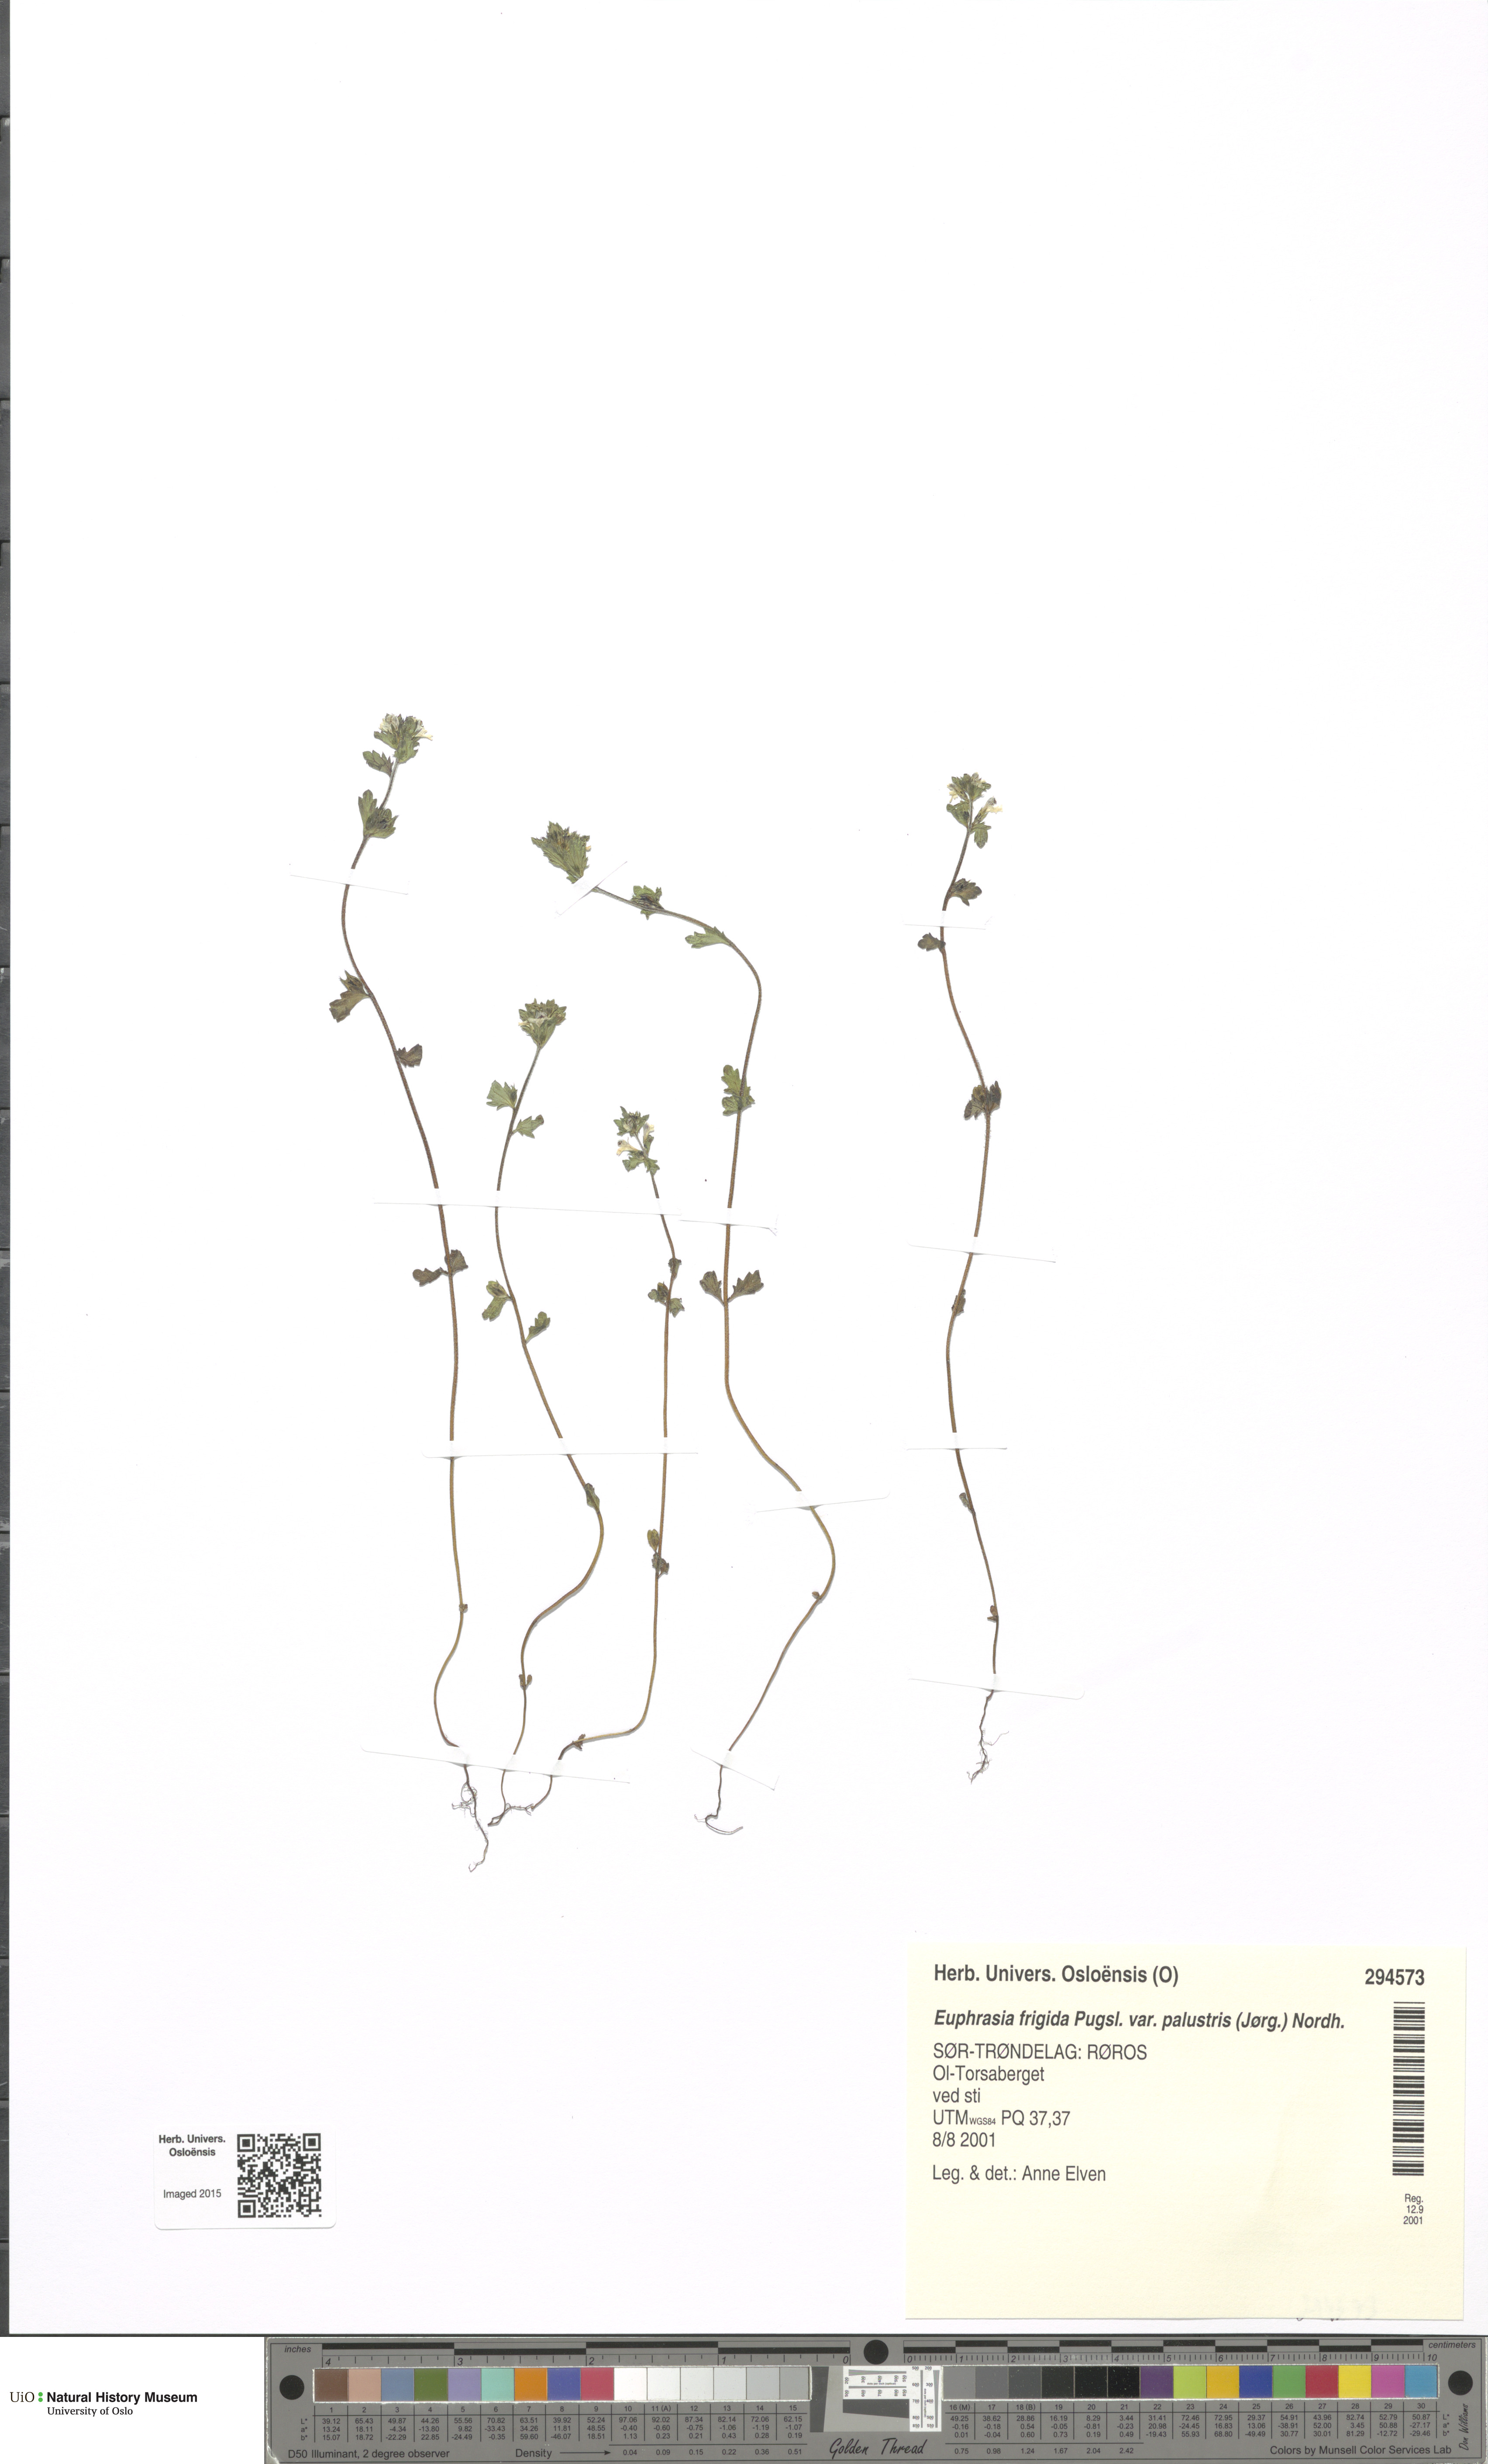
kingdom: Plantae
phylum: Tracheophyta
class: Magnoliopsida
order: Lamiales
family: Orobanchaceae
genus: Euphrasia
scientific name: Euphrasia wettsteinii
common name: Wettstein's eyebright
